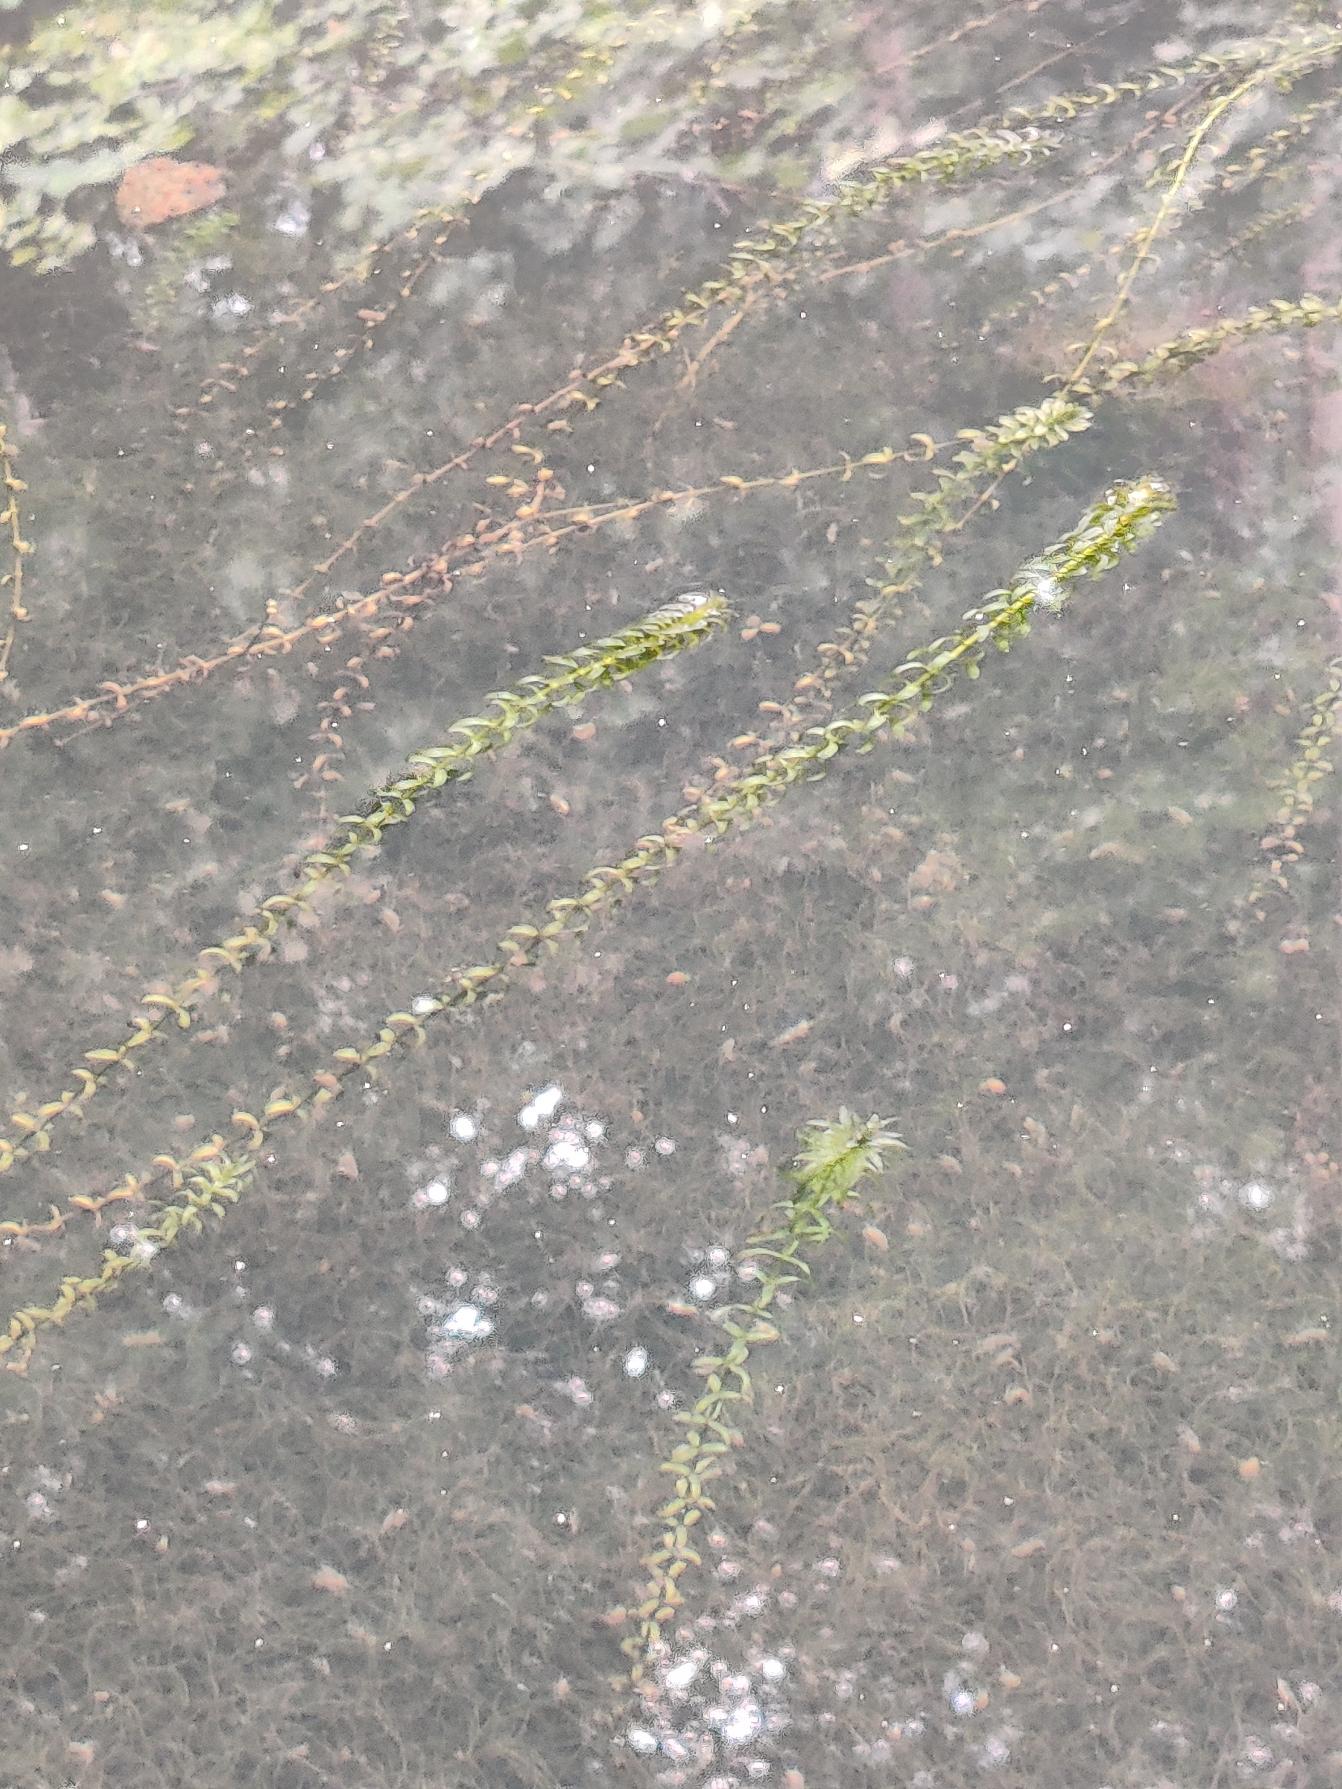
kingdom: Plantae
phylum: Tracheophyta
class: Liliopsida
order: Alismatales
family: Hydrocharitaceae
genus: Elodea
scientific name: Elodea canadensis
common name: Vandpest
